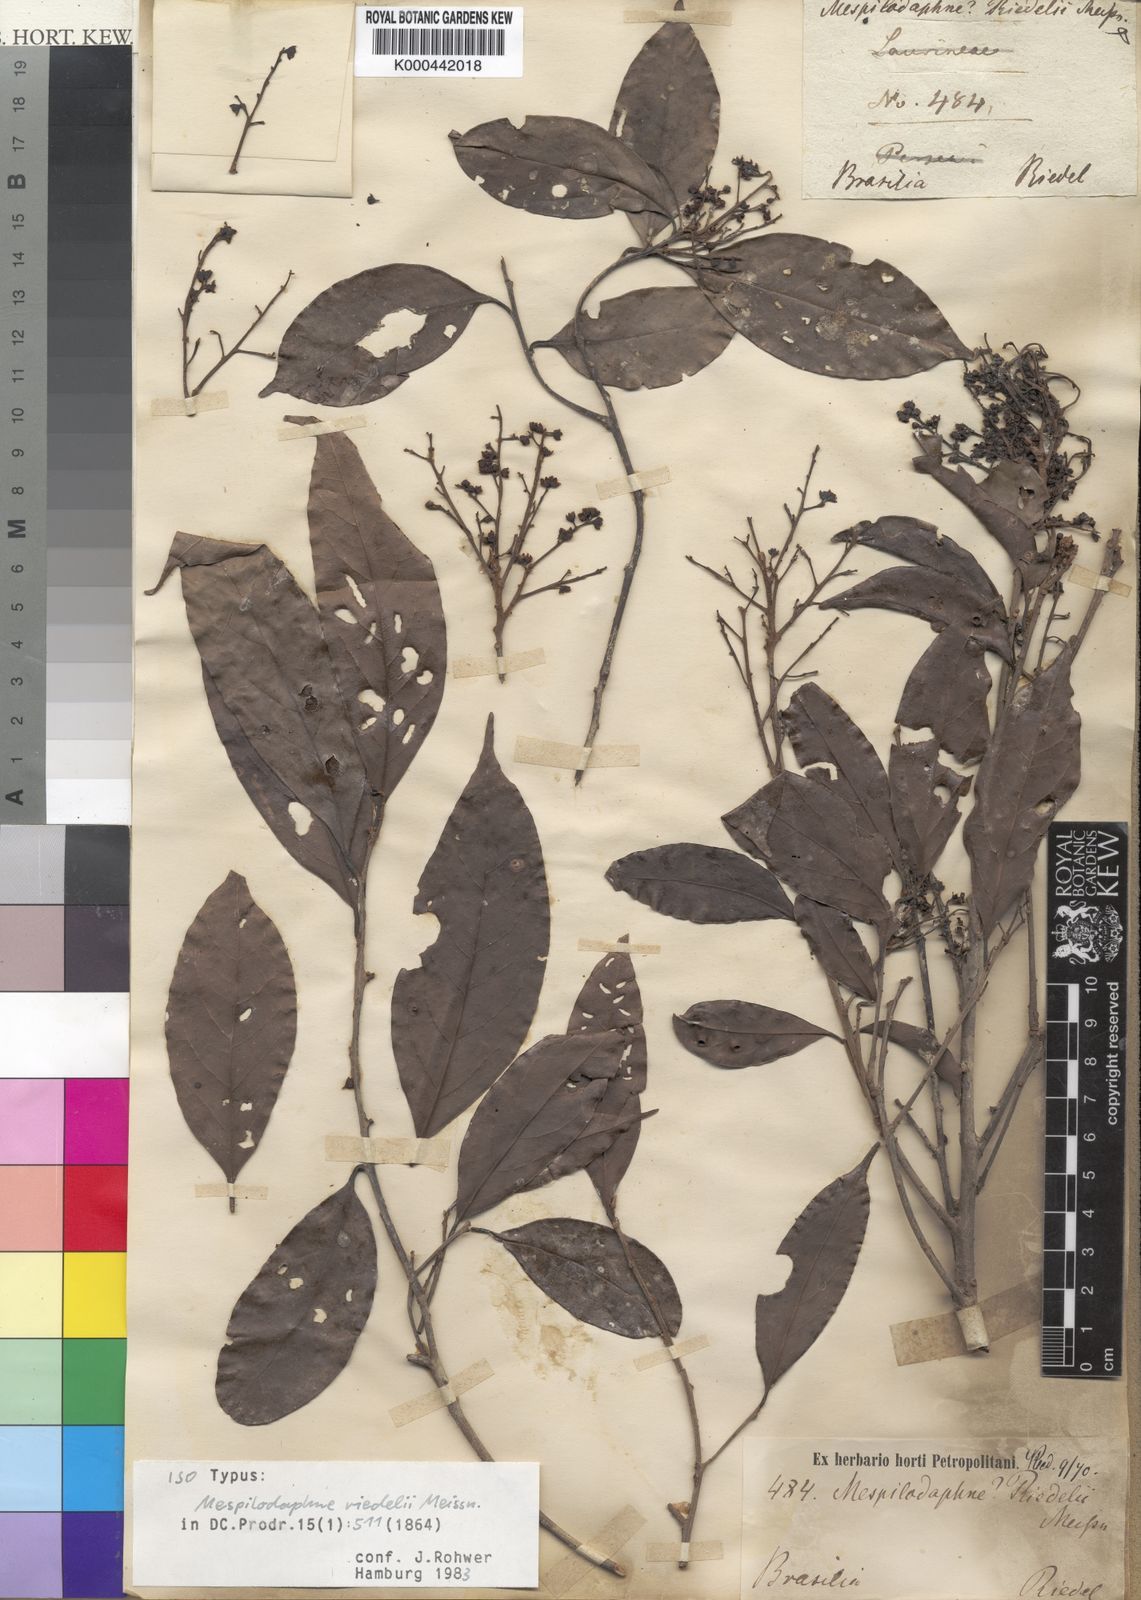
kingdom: Plantae
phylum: Tracheophyta
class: Magnoliopsida
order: Laurales
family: Lauraceae
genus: Ocotea
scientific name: Ocotea dispersa
